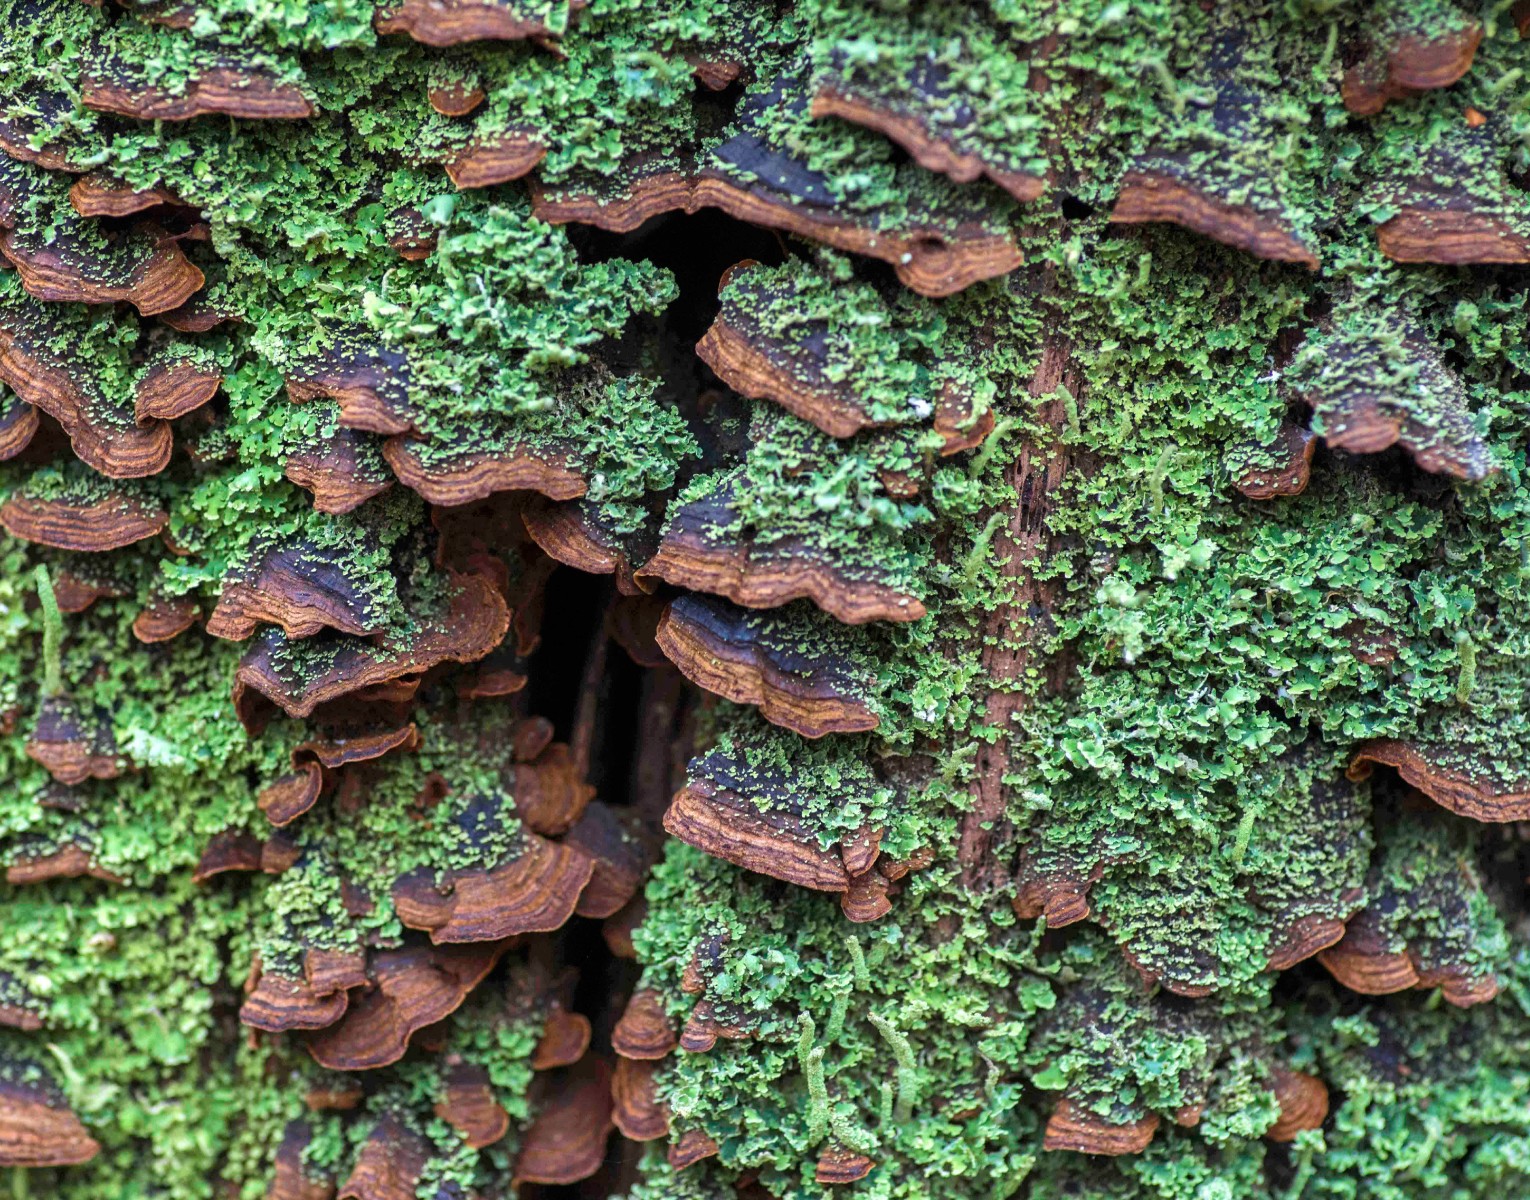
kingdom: Fungi
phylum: Basidiomycota
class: Agaricomycetes
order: Hymenochaetales
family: Hymenochaetaceae
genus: Hymenochaete
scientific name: Hymenochaete rubiginosa
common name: stiv ruslædersvamp
